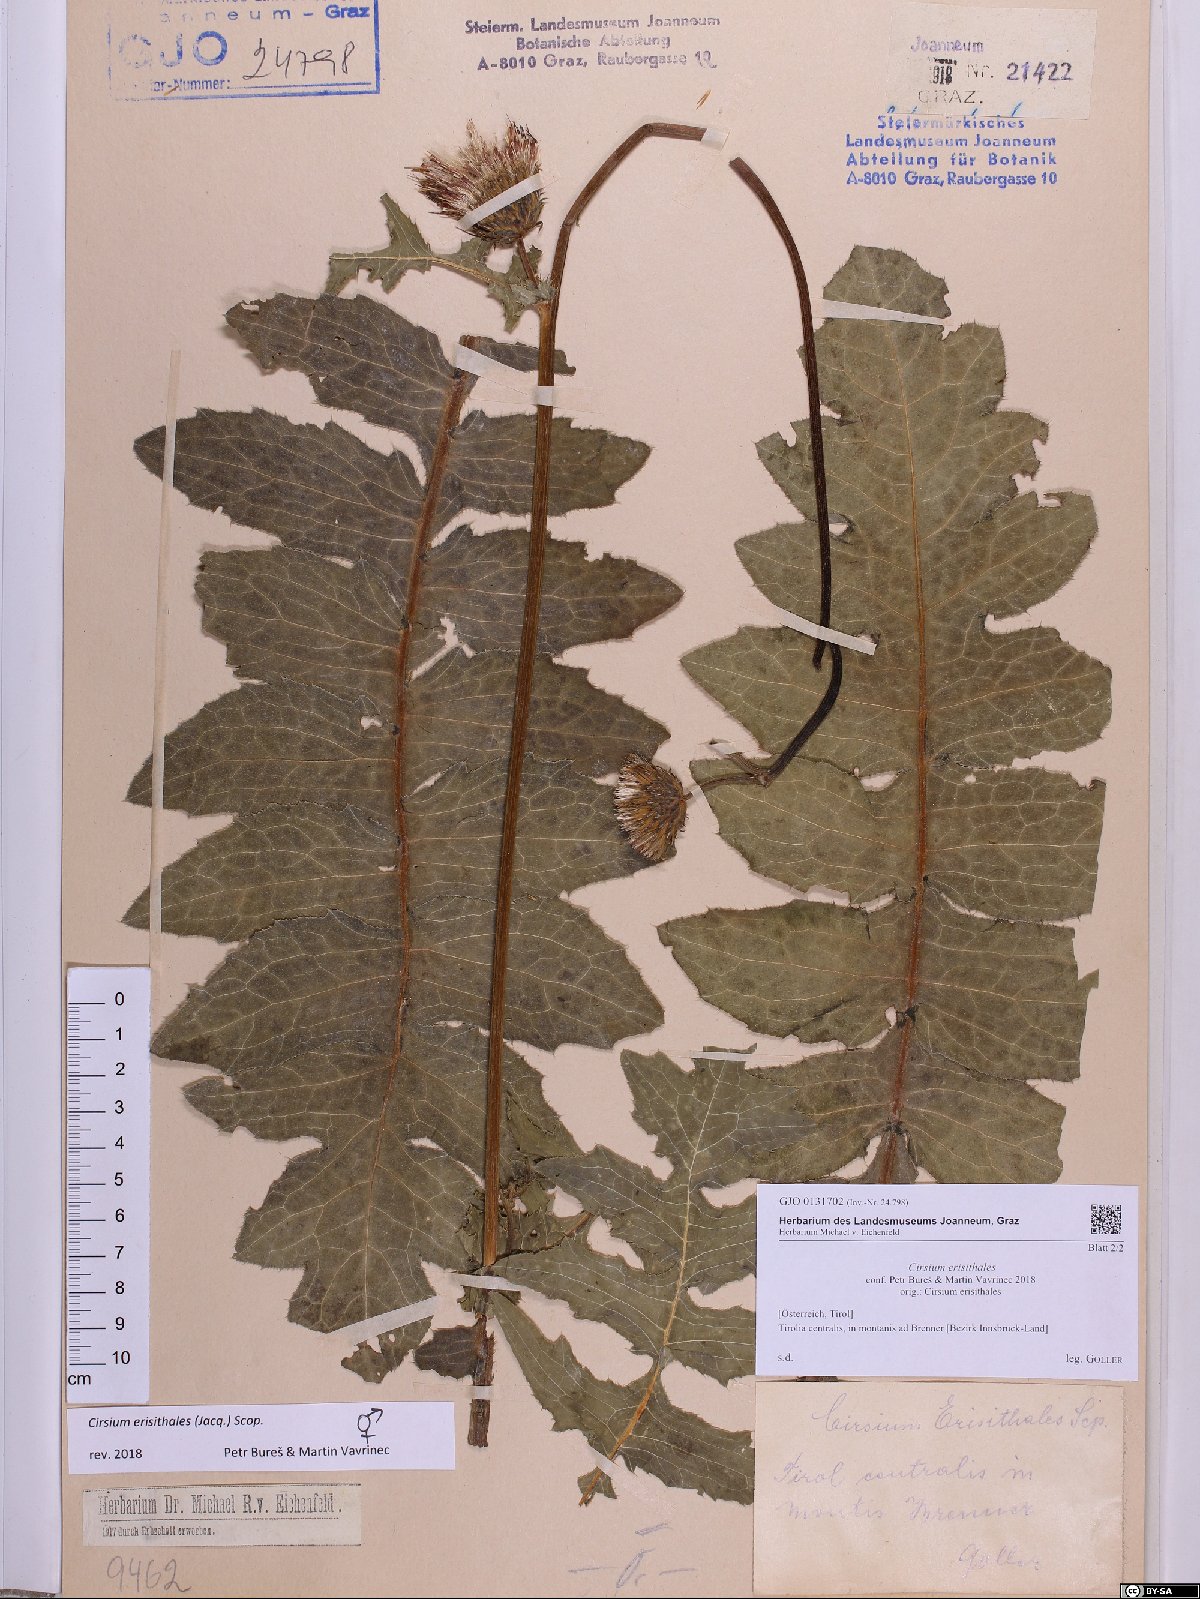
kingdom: Plantae
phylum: Tracheophyta
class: Magnoliopsida
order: Asterales
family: Asteraceae
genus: Cirsium
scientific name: Cirsium erisithales
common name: Yellow thistle
